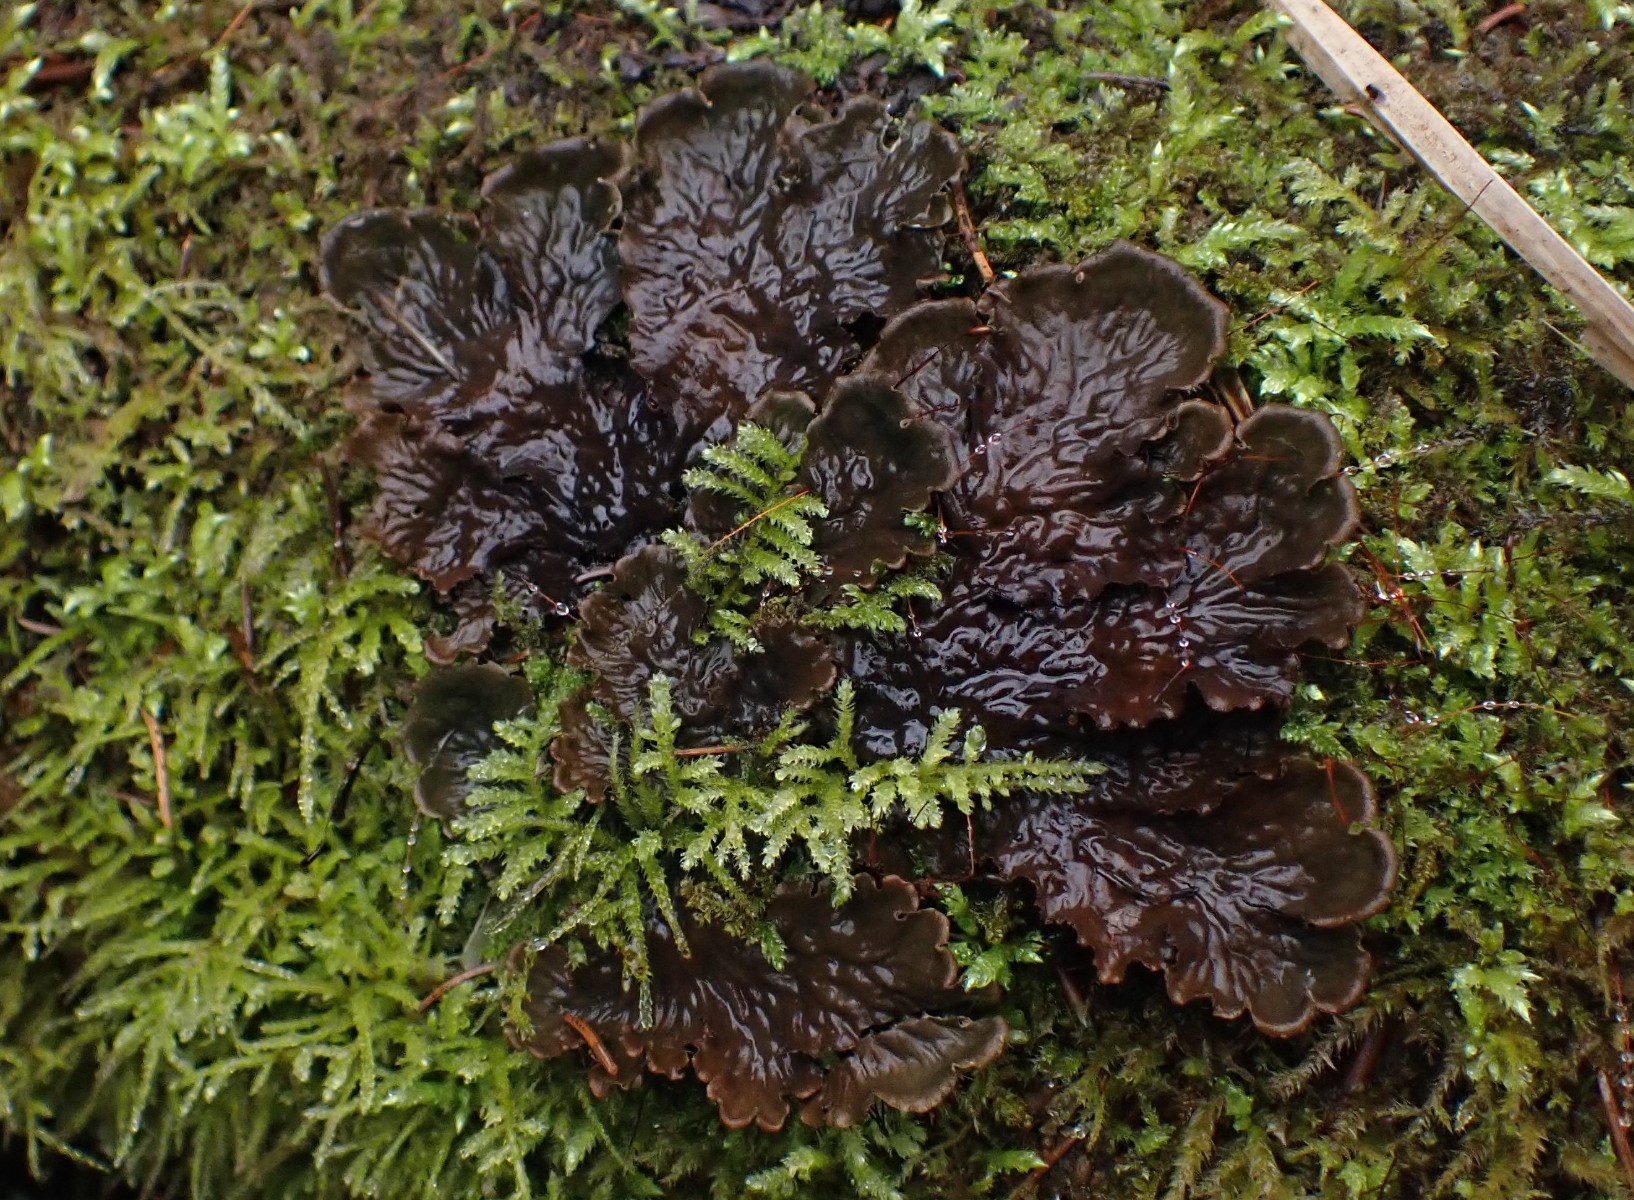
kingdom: Fungi
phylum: Ascomycota
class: Lecanoromycetes
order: Peltigerales
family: Peltigeraceae
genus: Peltigera
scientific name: Peltigera
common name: skjoldlav
